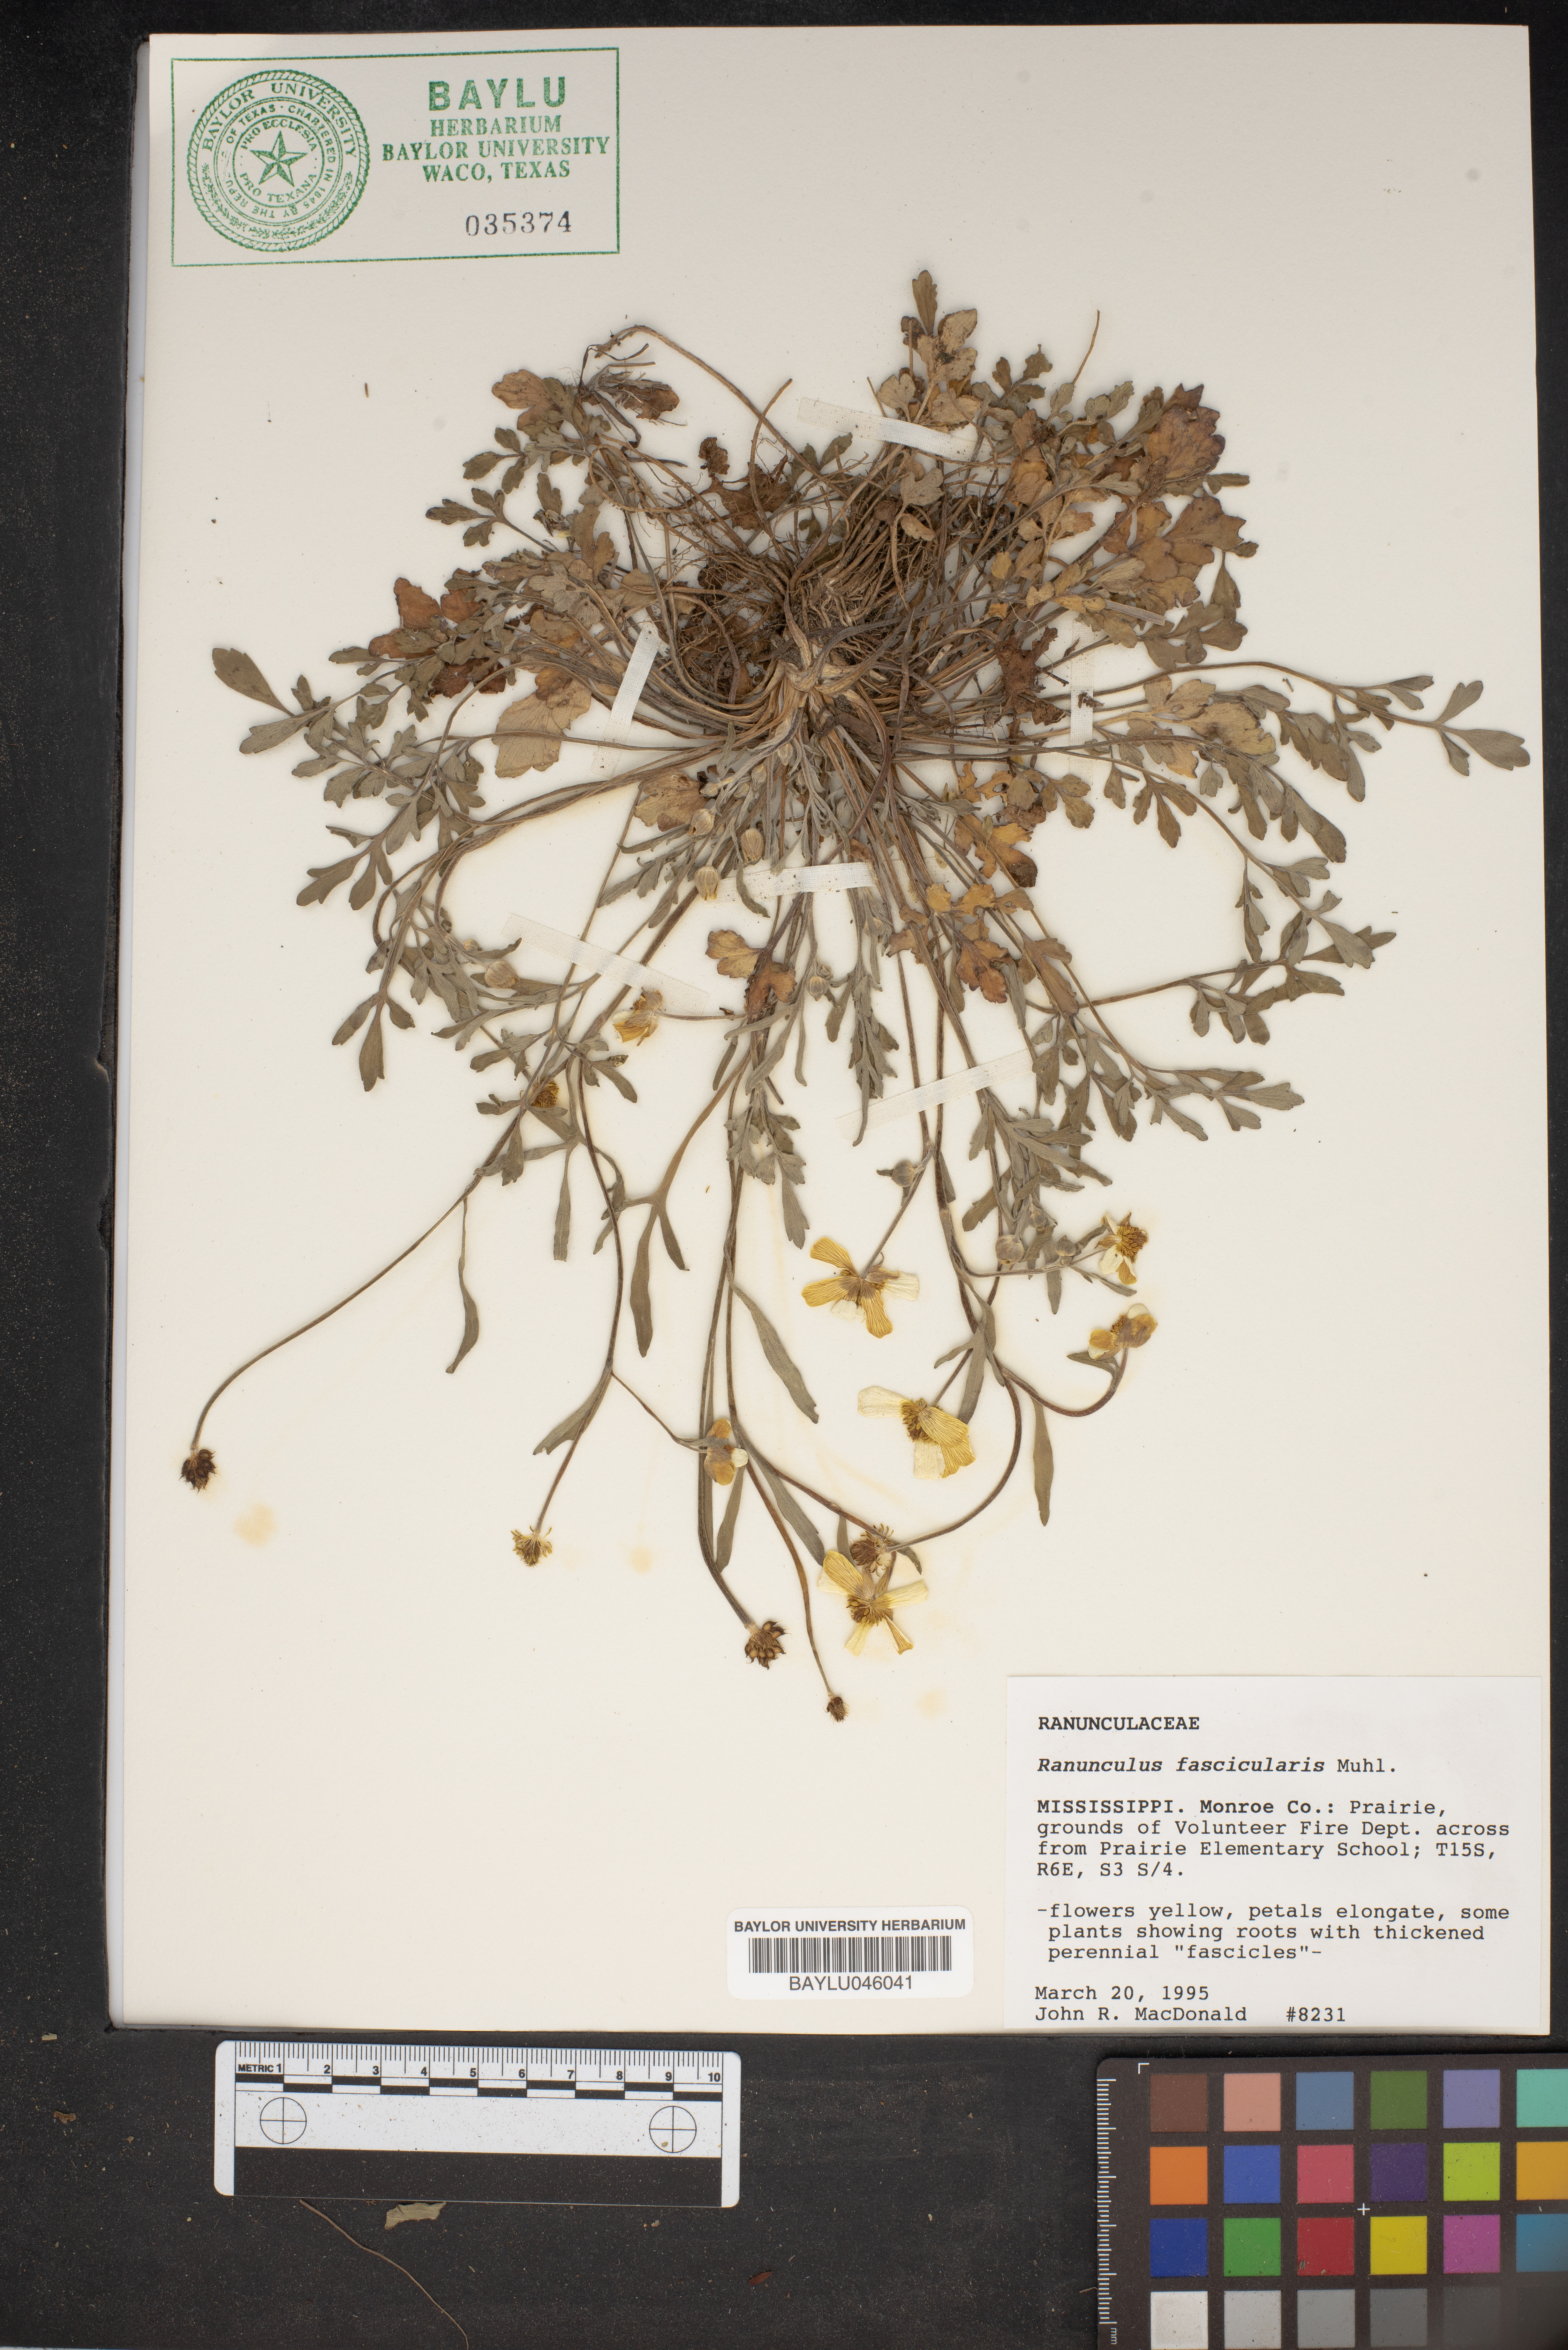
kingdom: Plantae
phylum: Tracheophyta
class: Magnoliopsida
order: Ranunculales
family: Ranunculaceae
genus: Ranunculus
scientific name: Ranunculus fascicularis
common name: Early buttercup
